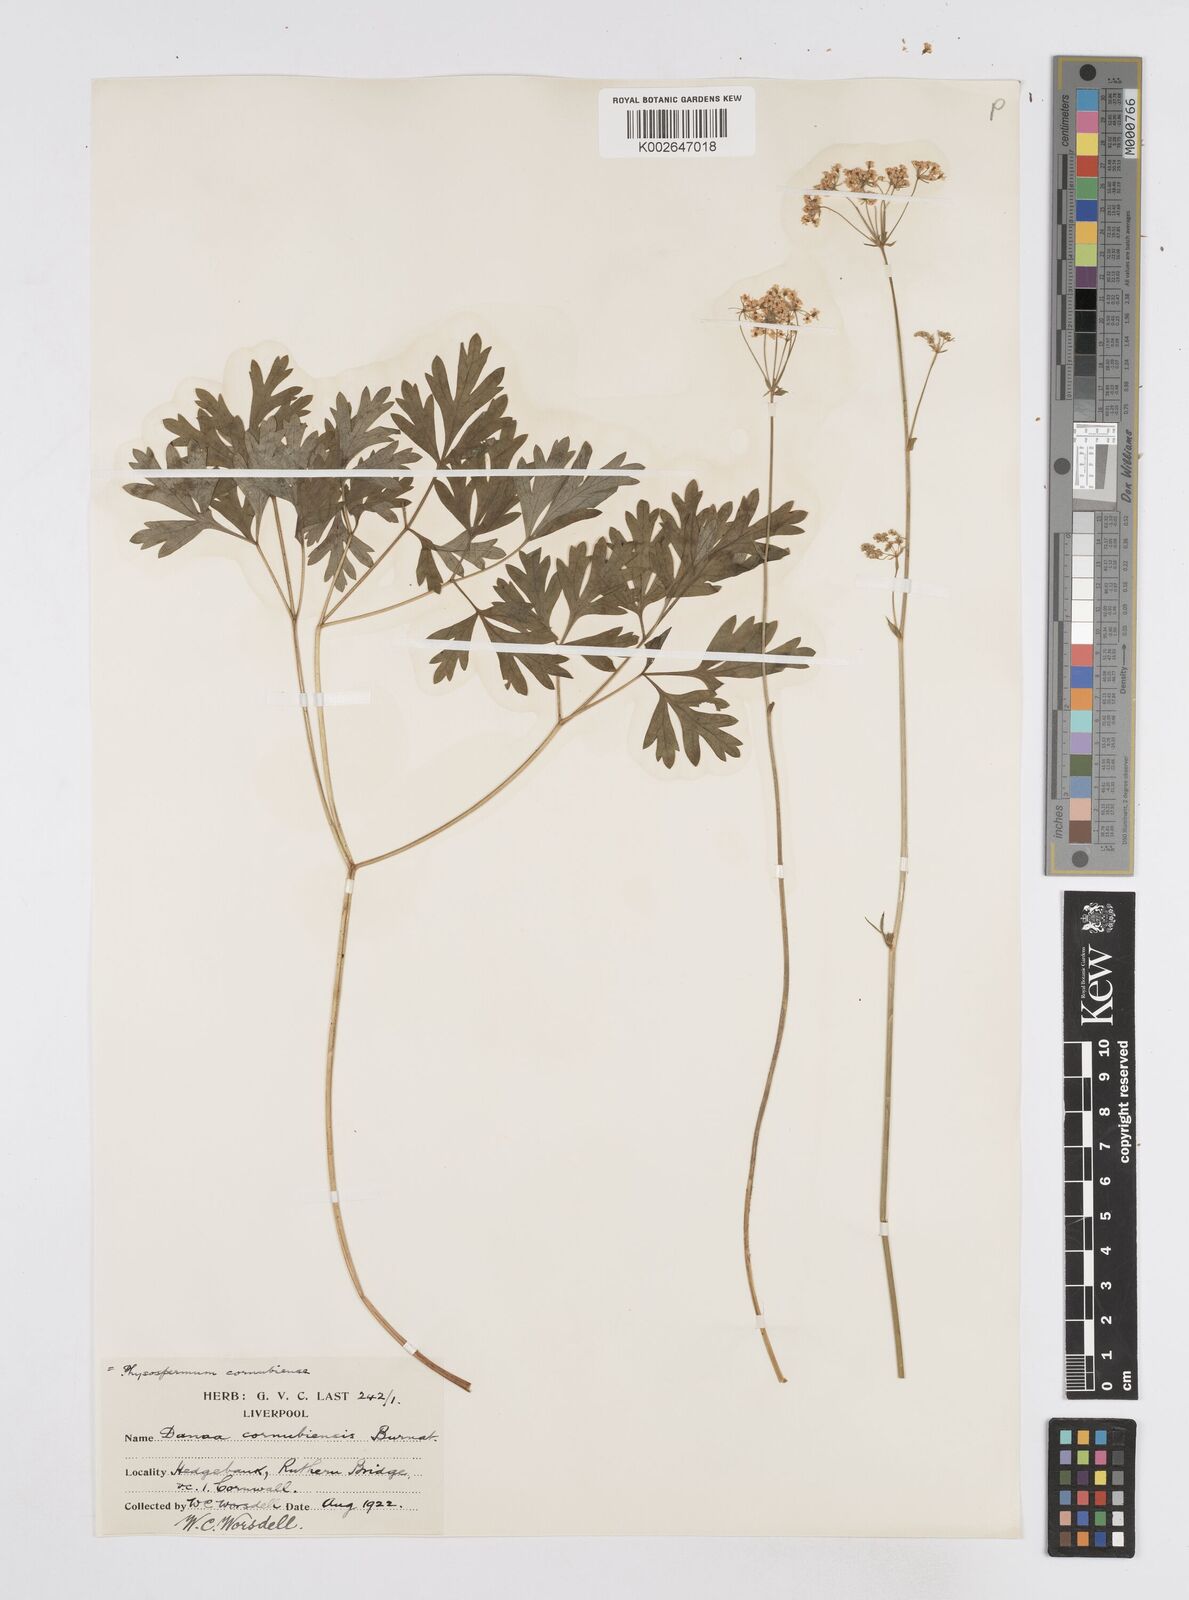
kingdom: Plantae
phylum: Tracheophyta
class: Magnoliopsida
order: Apiales
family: Apiaceae
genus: Physospermum
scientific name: Physospermum cornubiense
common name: Bladderseed
